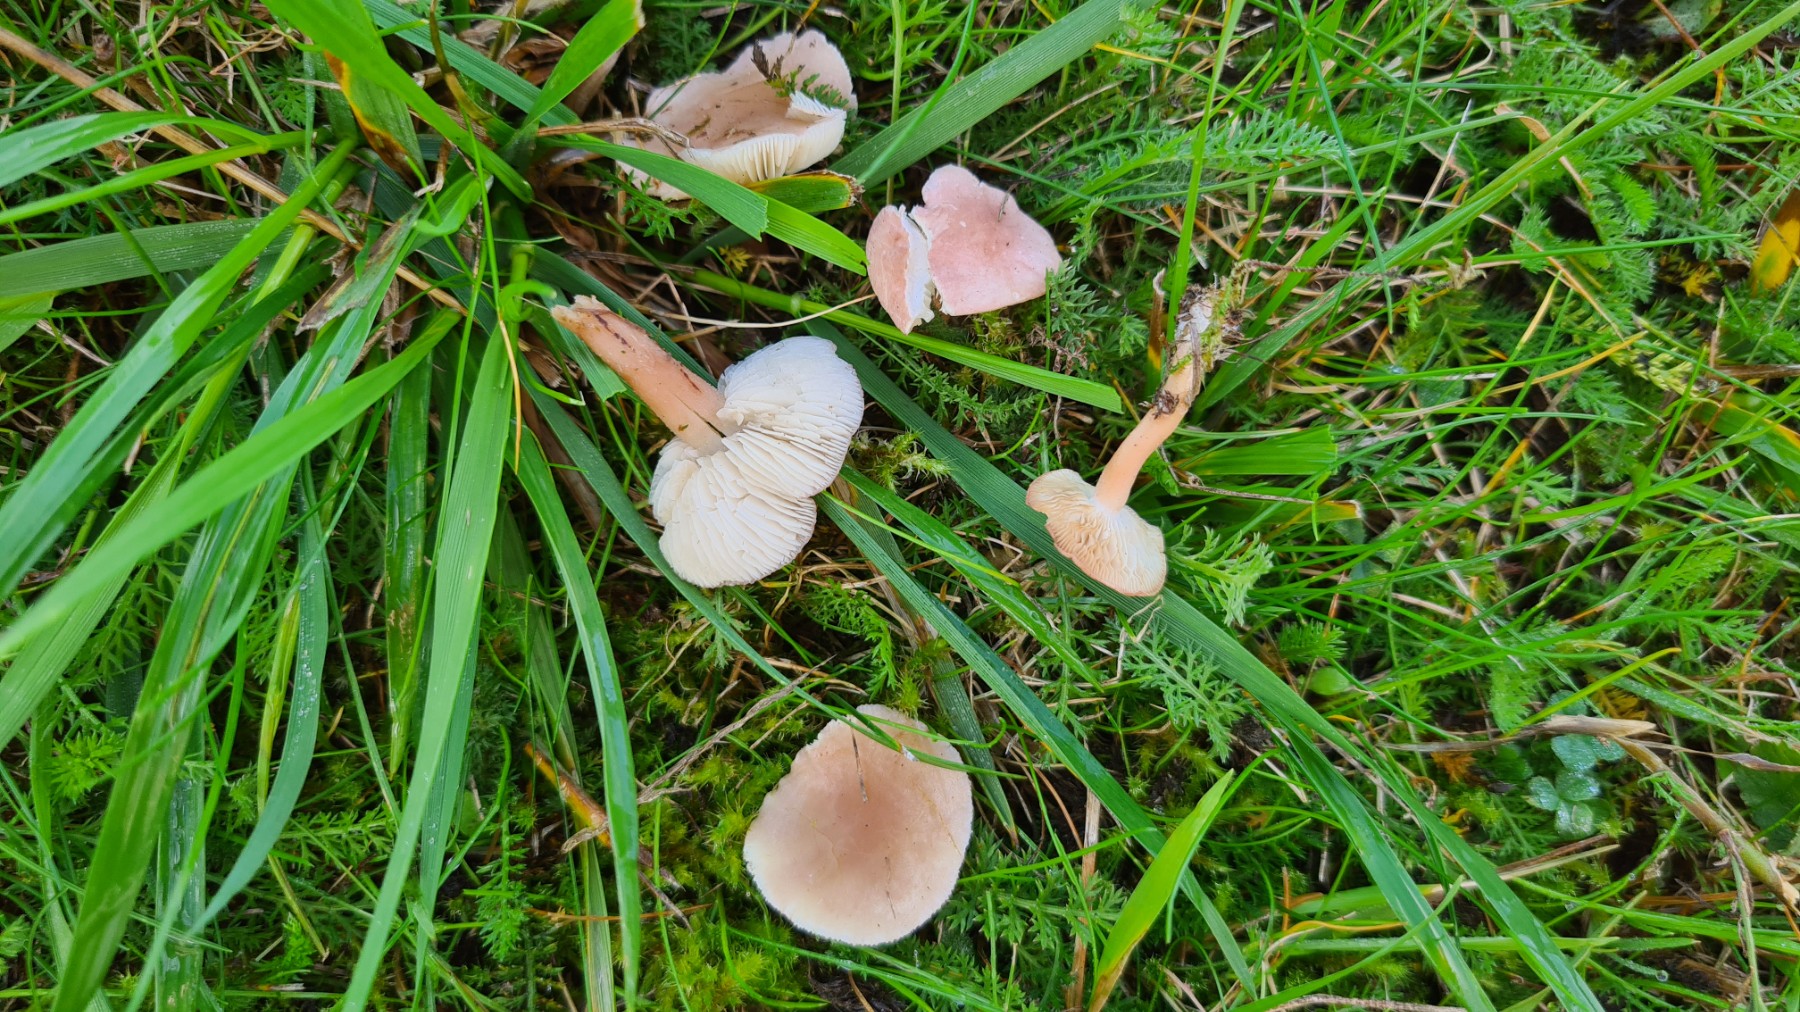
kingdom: Fungi
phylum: Basidiomycota
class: Agaricomycetes
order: Agaricales
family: Lyophyllaceae
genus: Calocybe
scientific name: Calocybe carnea
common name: rosa fagerhat
